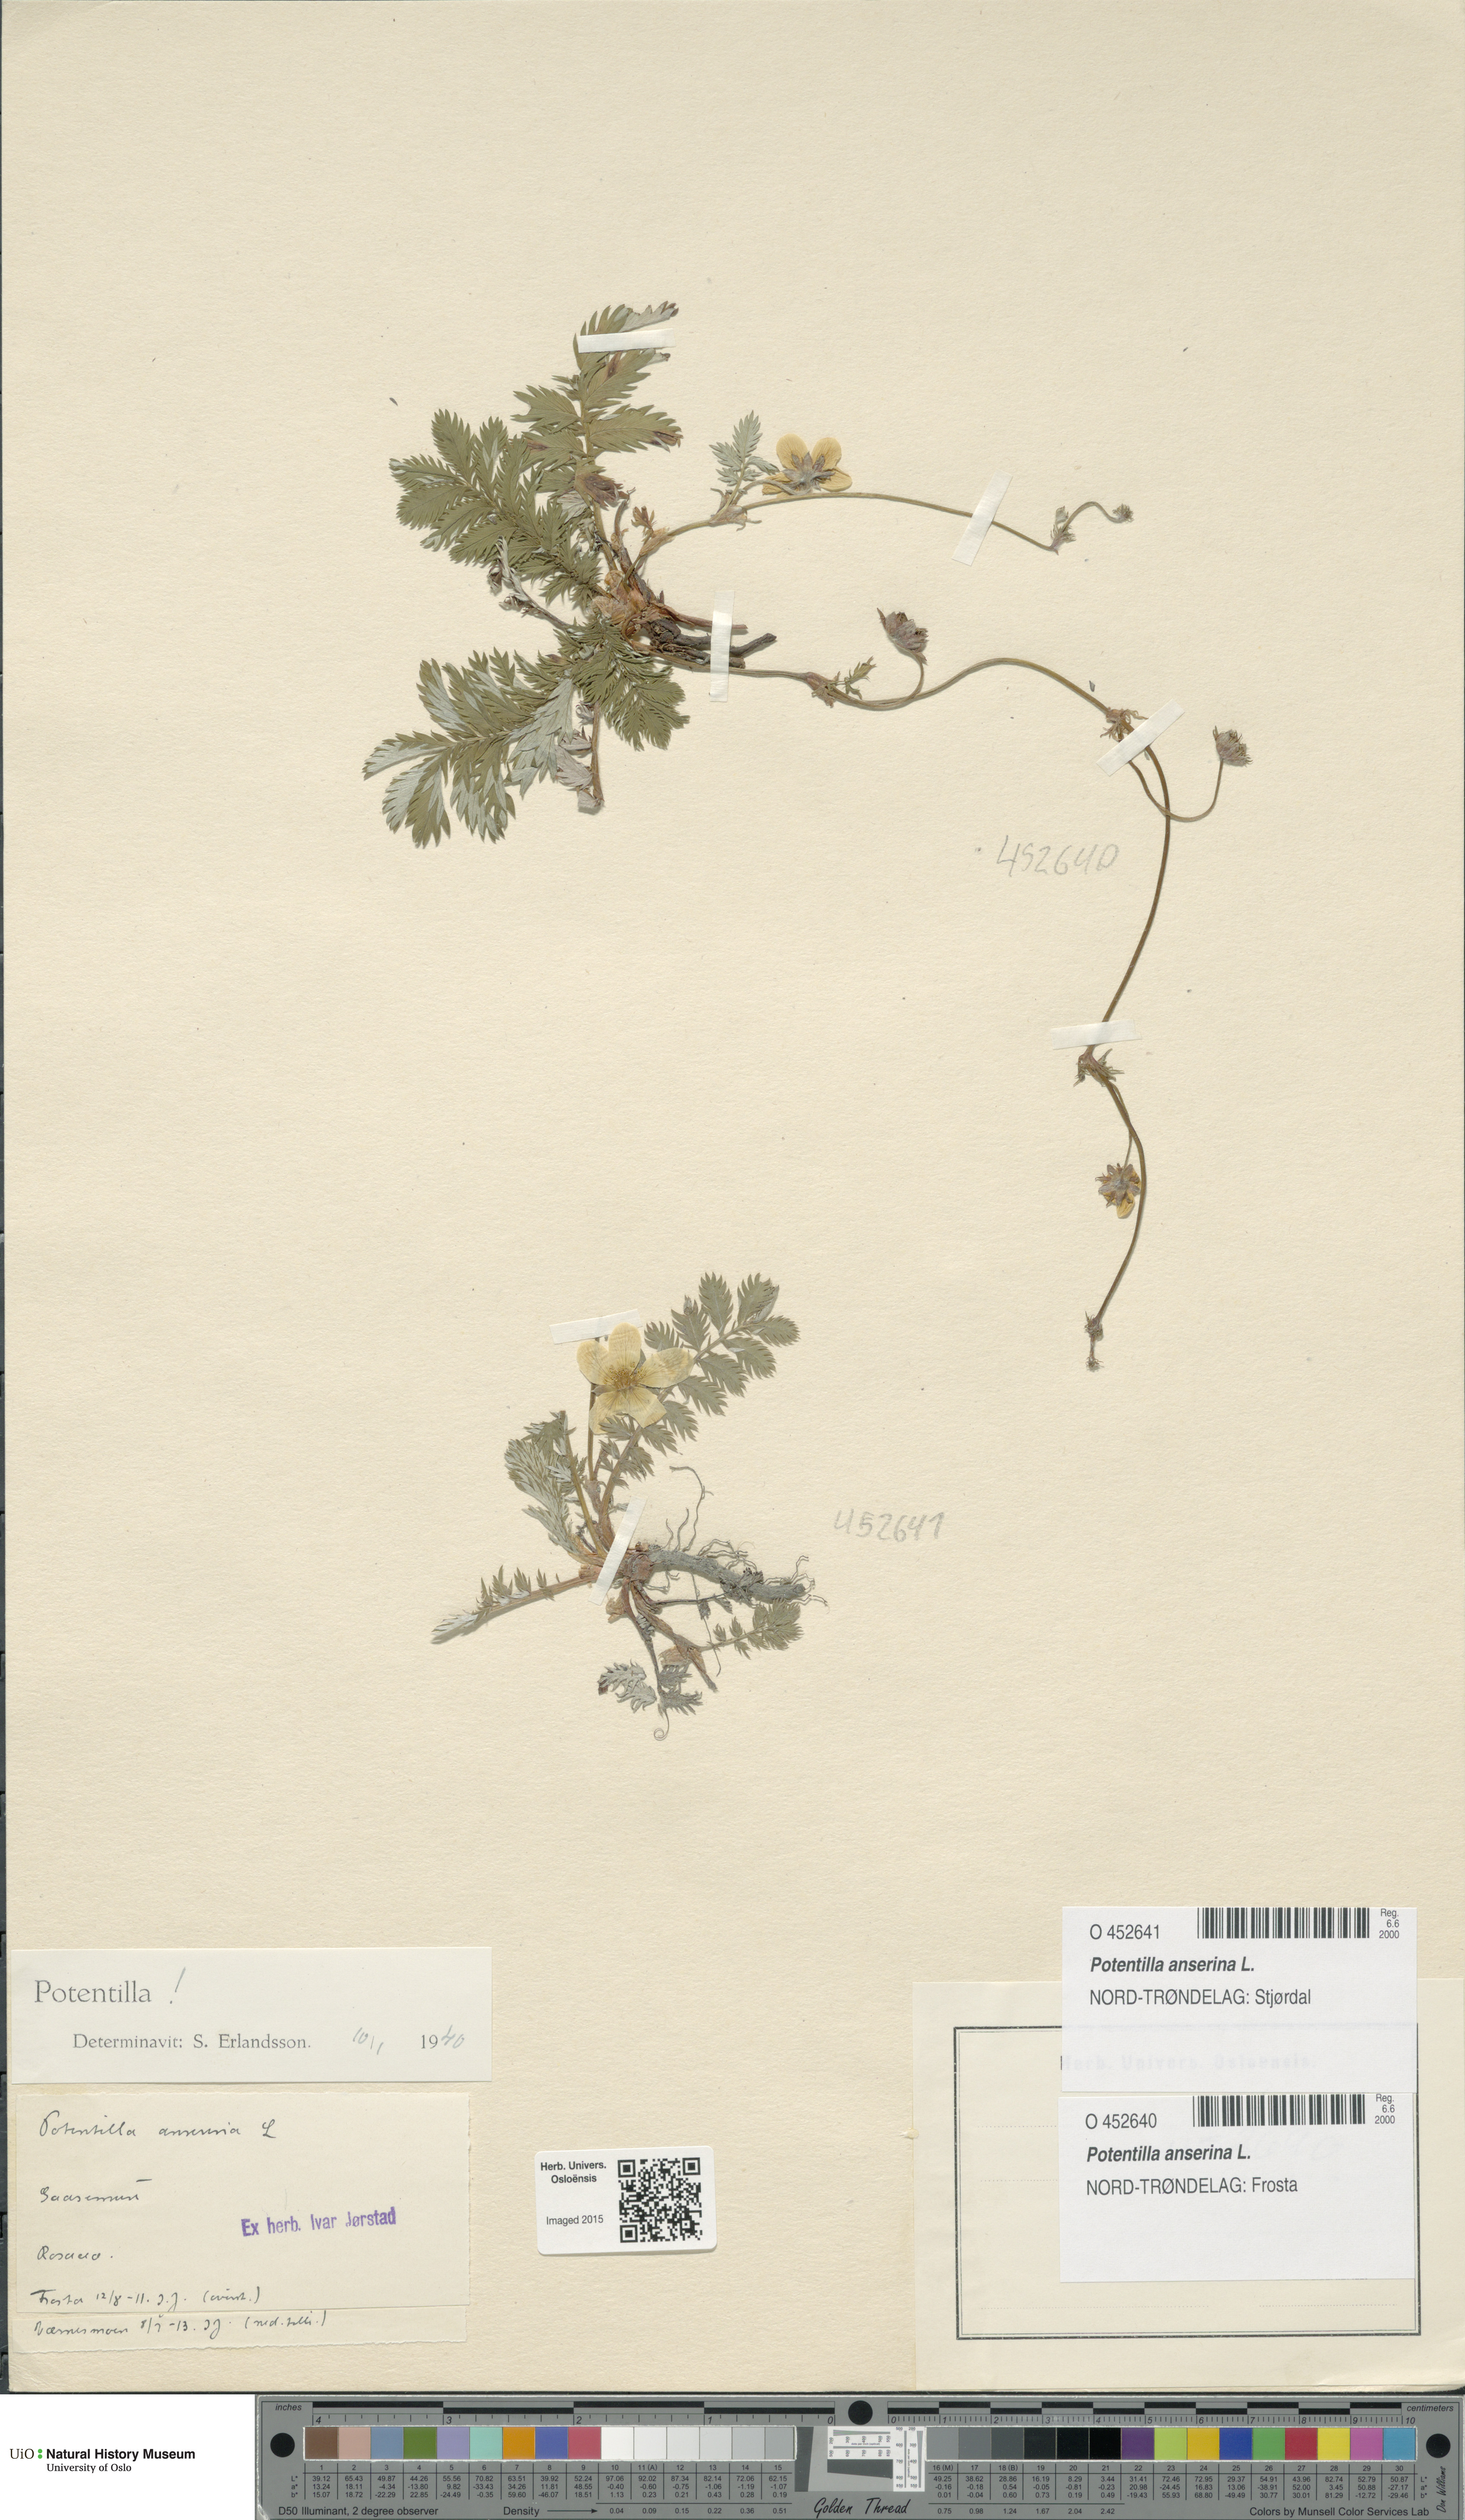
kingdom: Plantae
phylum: Tracheophyta
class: Magnoliopsida
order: Rosales
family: Rosaceae
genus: Argentina
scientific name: Argentina anserina
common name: Common silverweed
